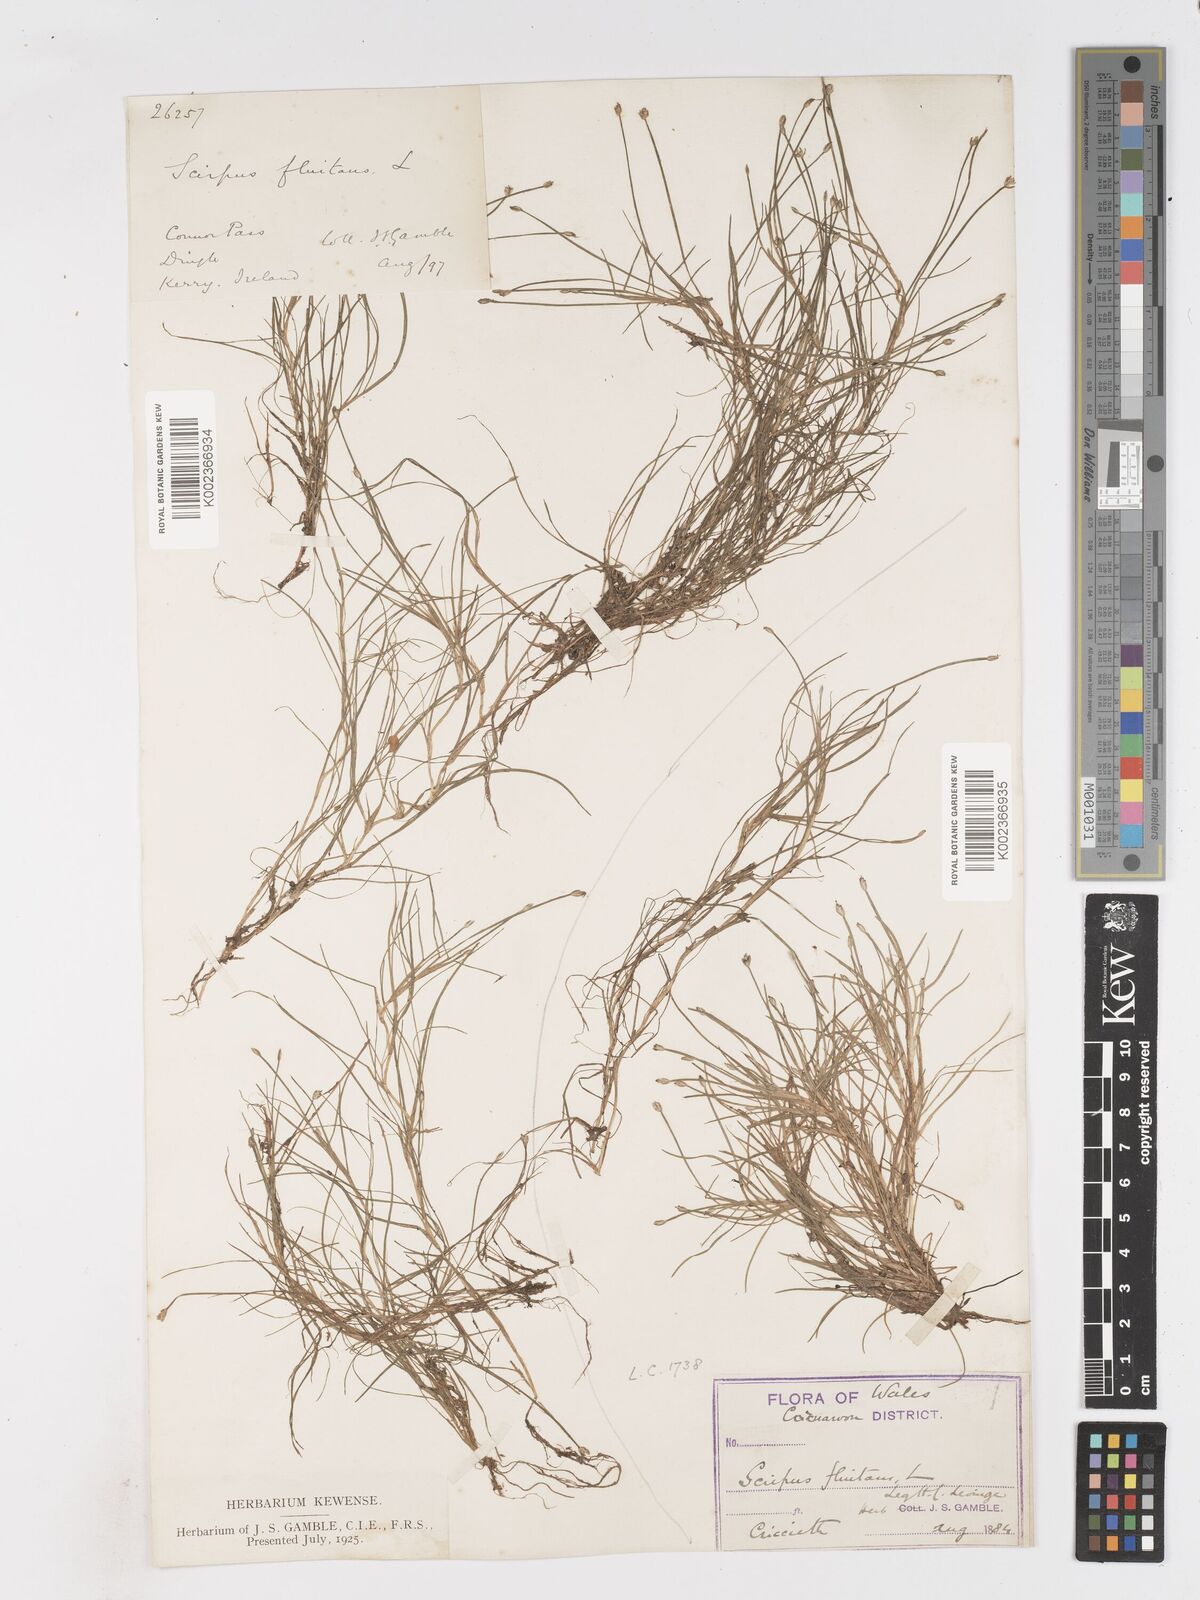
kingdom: Plantae
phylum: Tracheophyta
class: Liliopsida
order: Poales
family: Cyperaceae
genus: Isolepis
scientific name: Isolepis fluitans
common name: Floating club-rush
